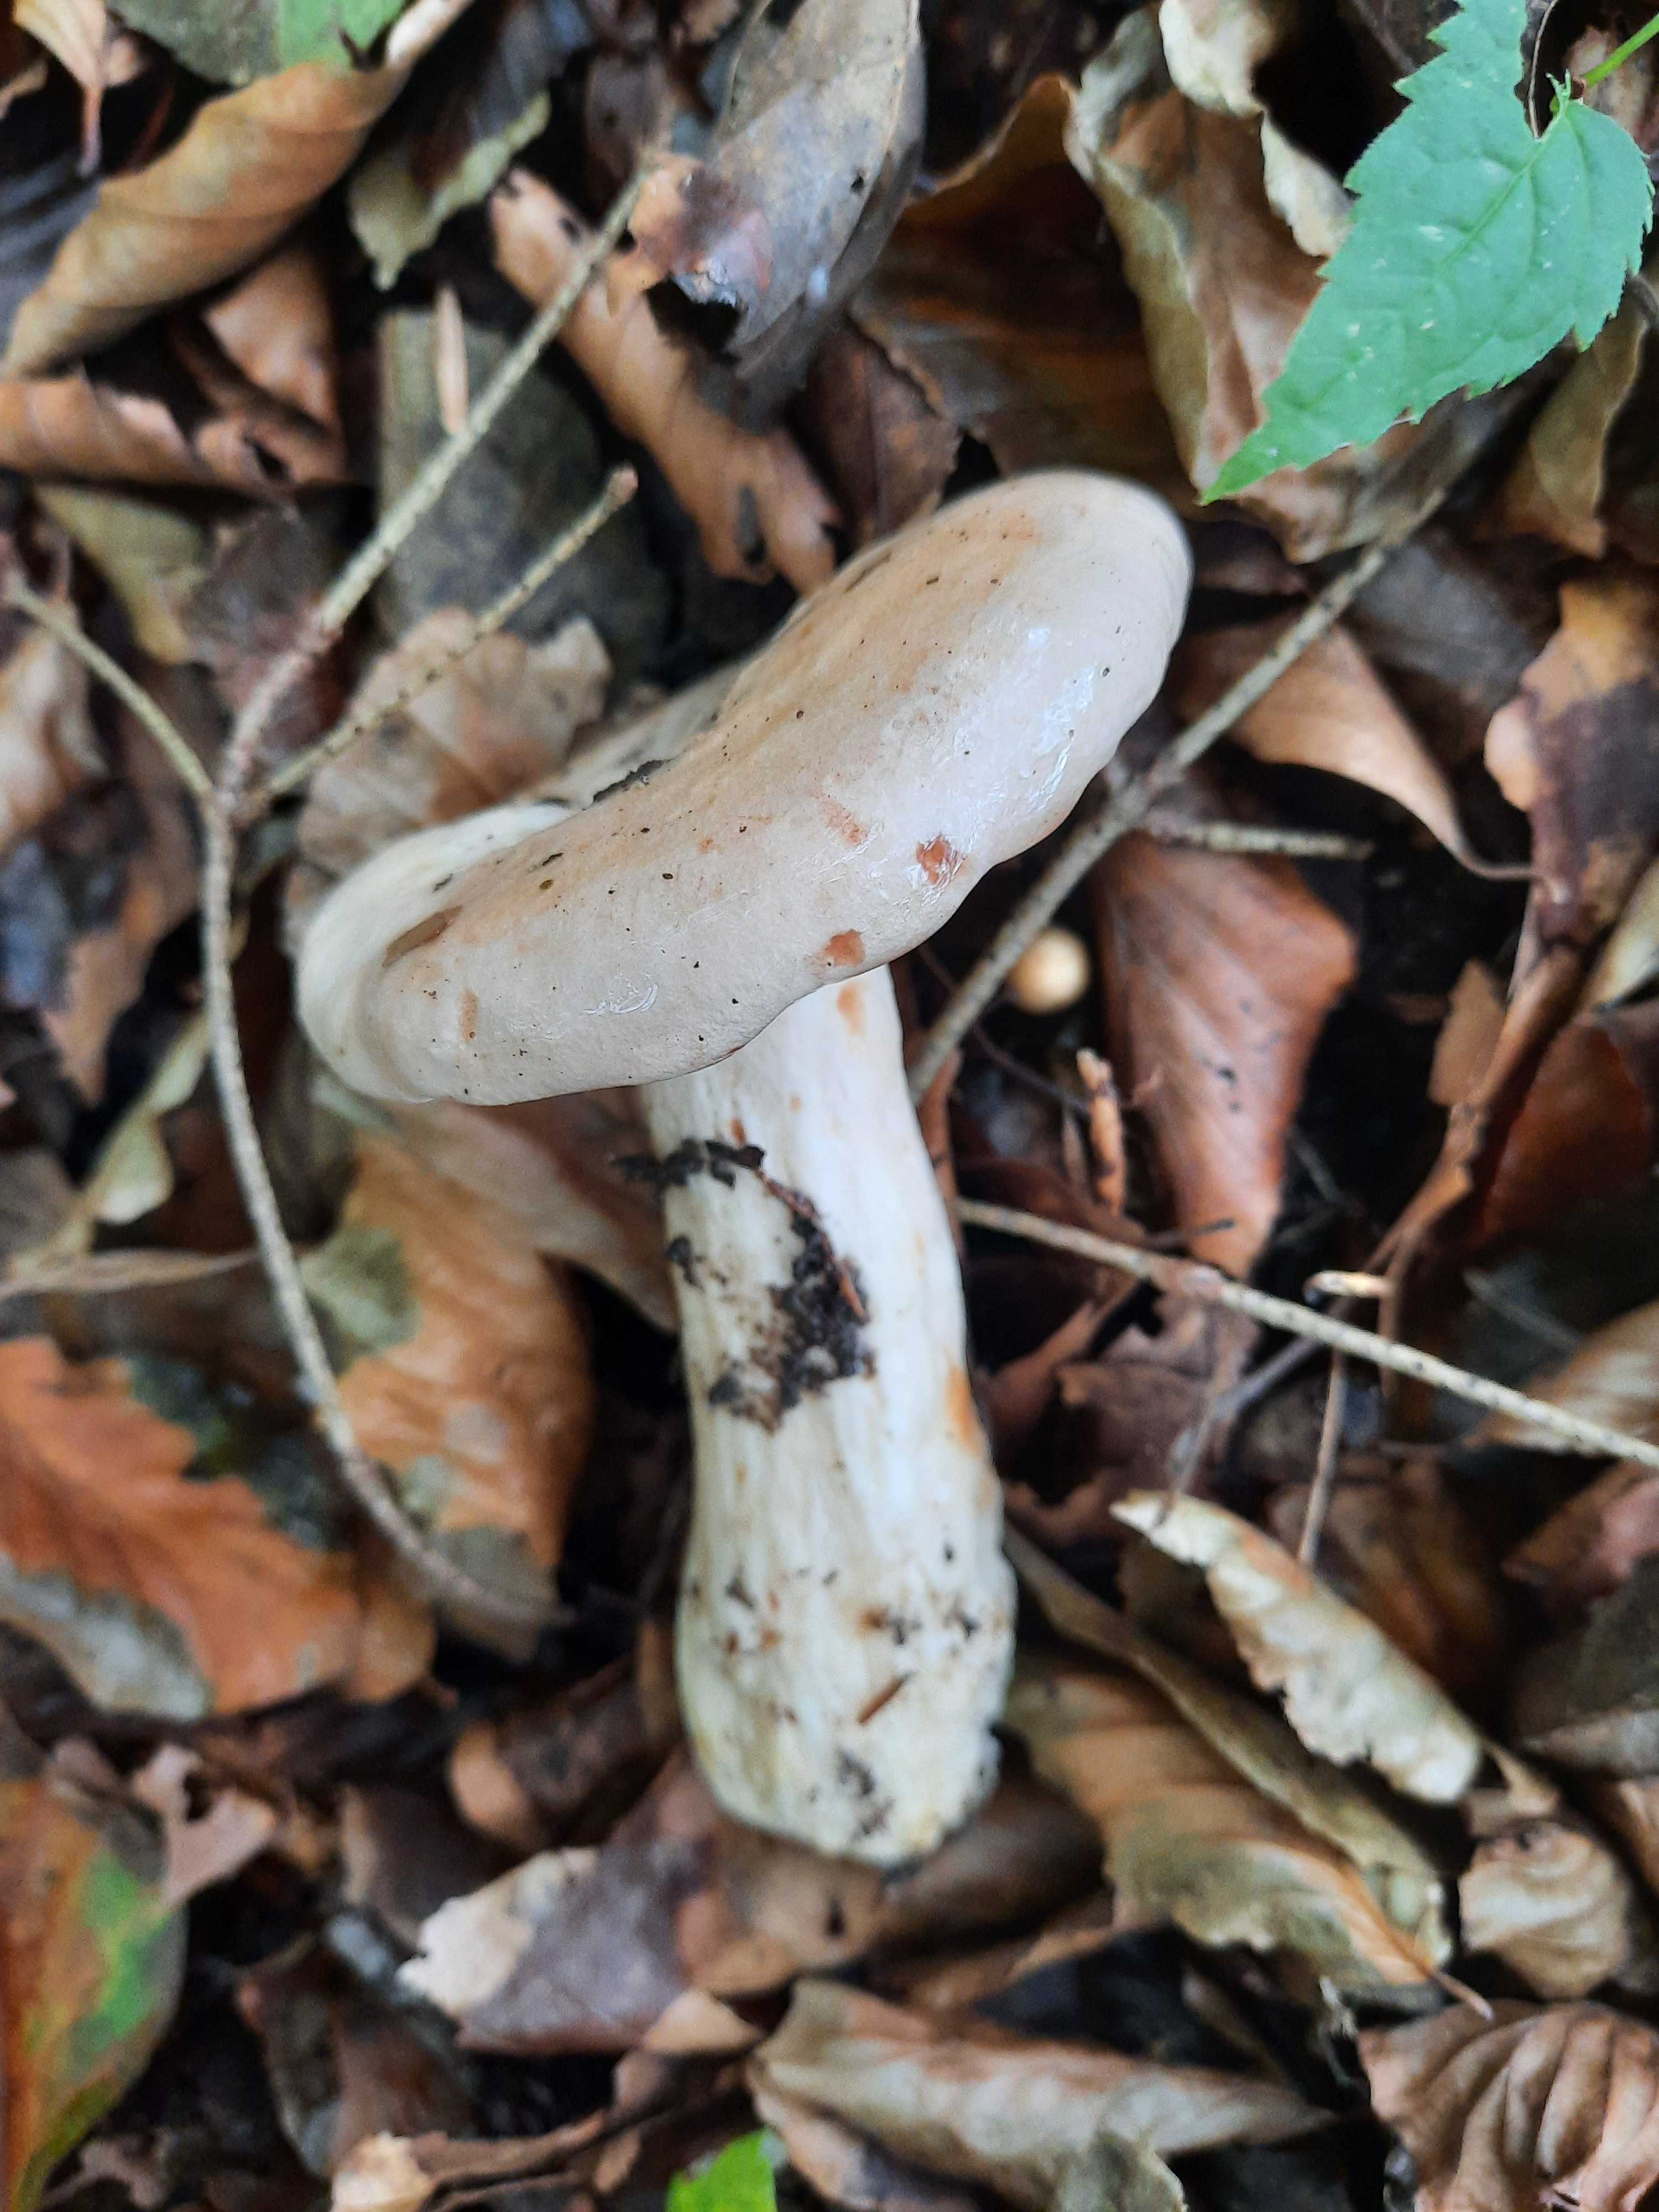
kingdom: Fungi
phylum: Basidiomycota
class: Agaricomycetes
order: Russulales
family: Russulaceae
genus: Lactarius
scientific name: Lactarius pallidus
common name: bleg mælkehat
